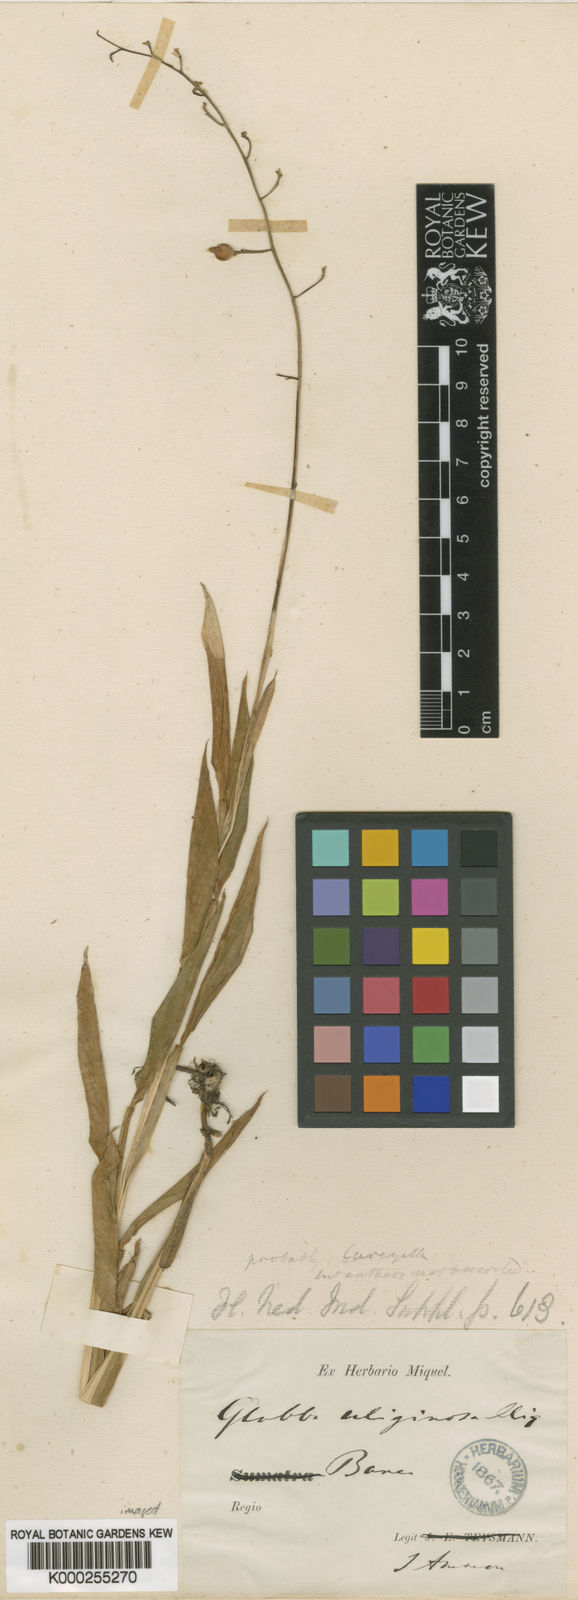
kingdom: Plantae
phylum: Tracheophyta
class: Liliopsida
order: Zingiberales
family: Zingiberaceae
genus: Globba
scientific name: Globba pendula
